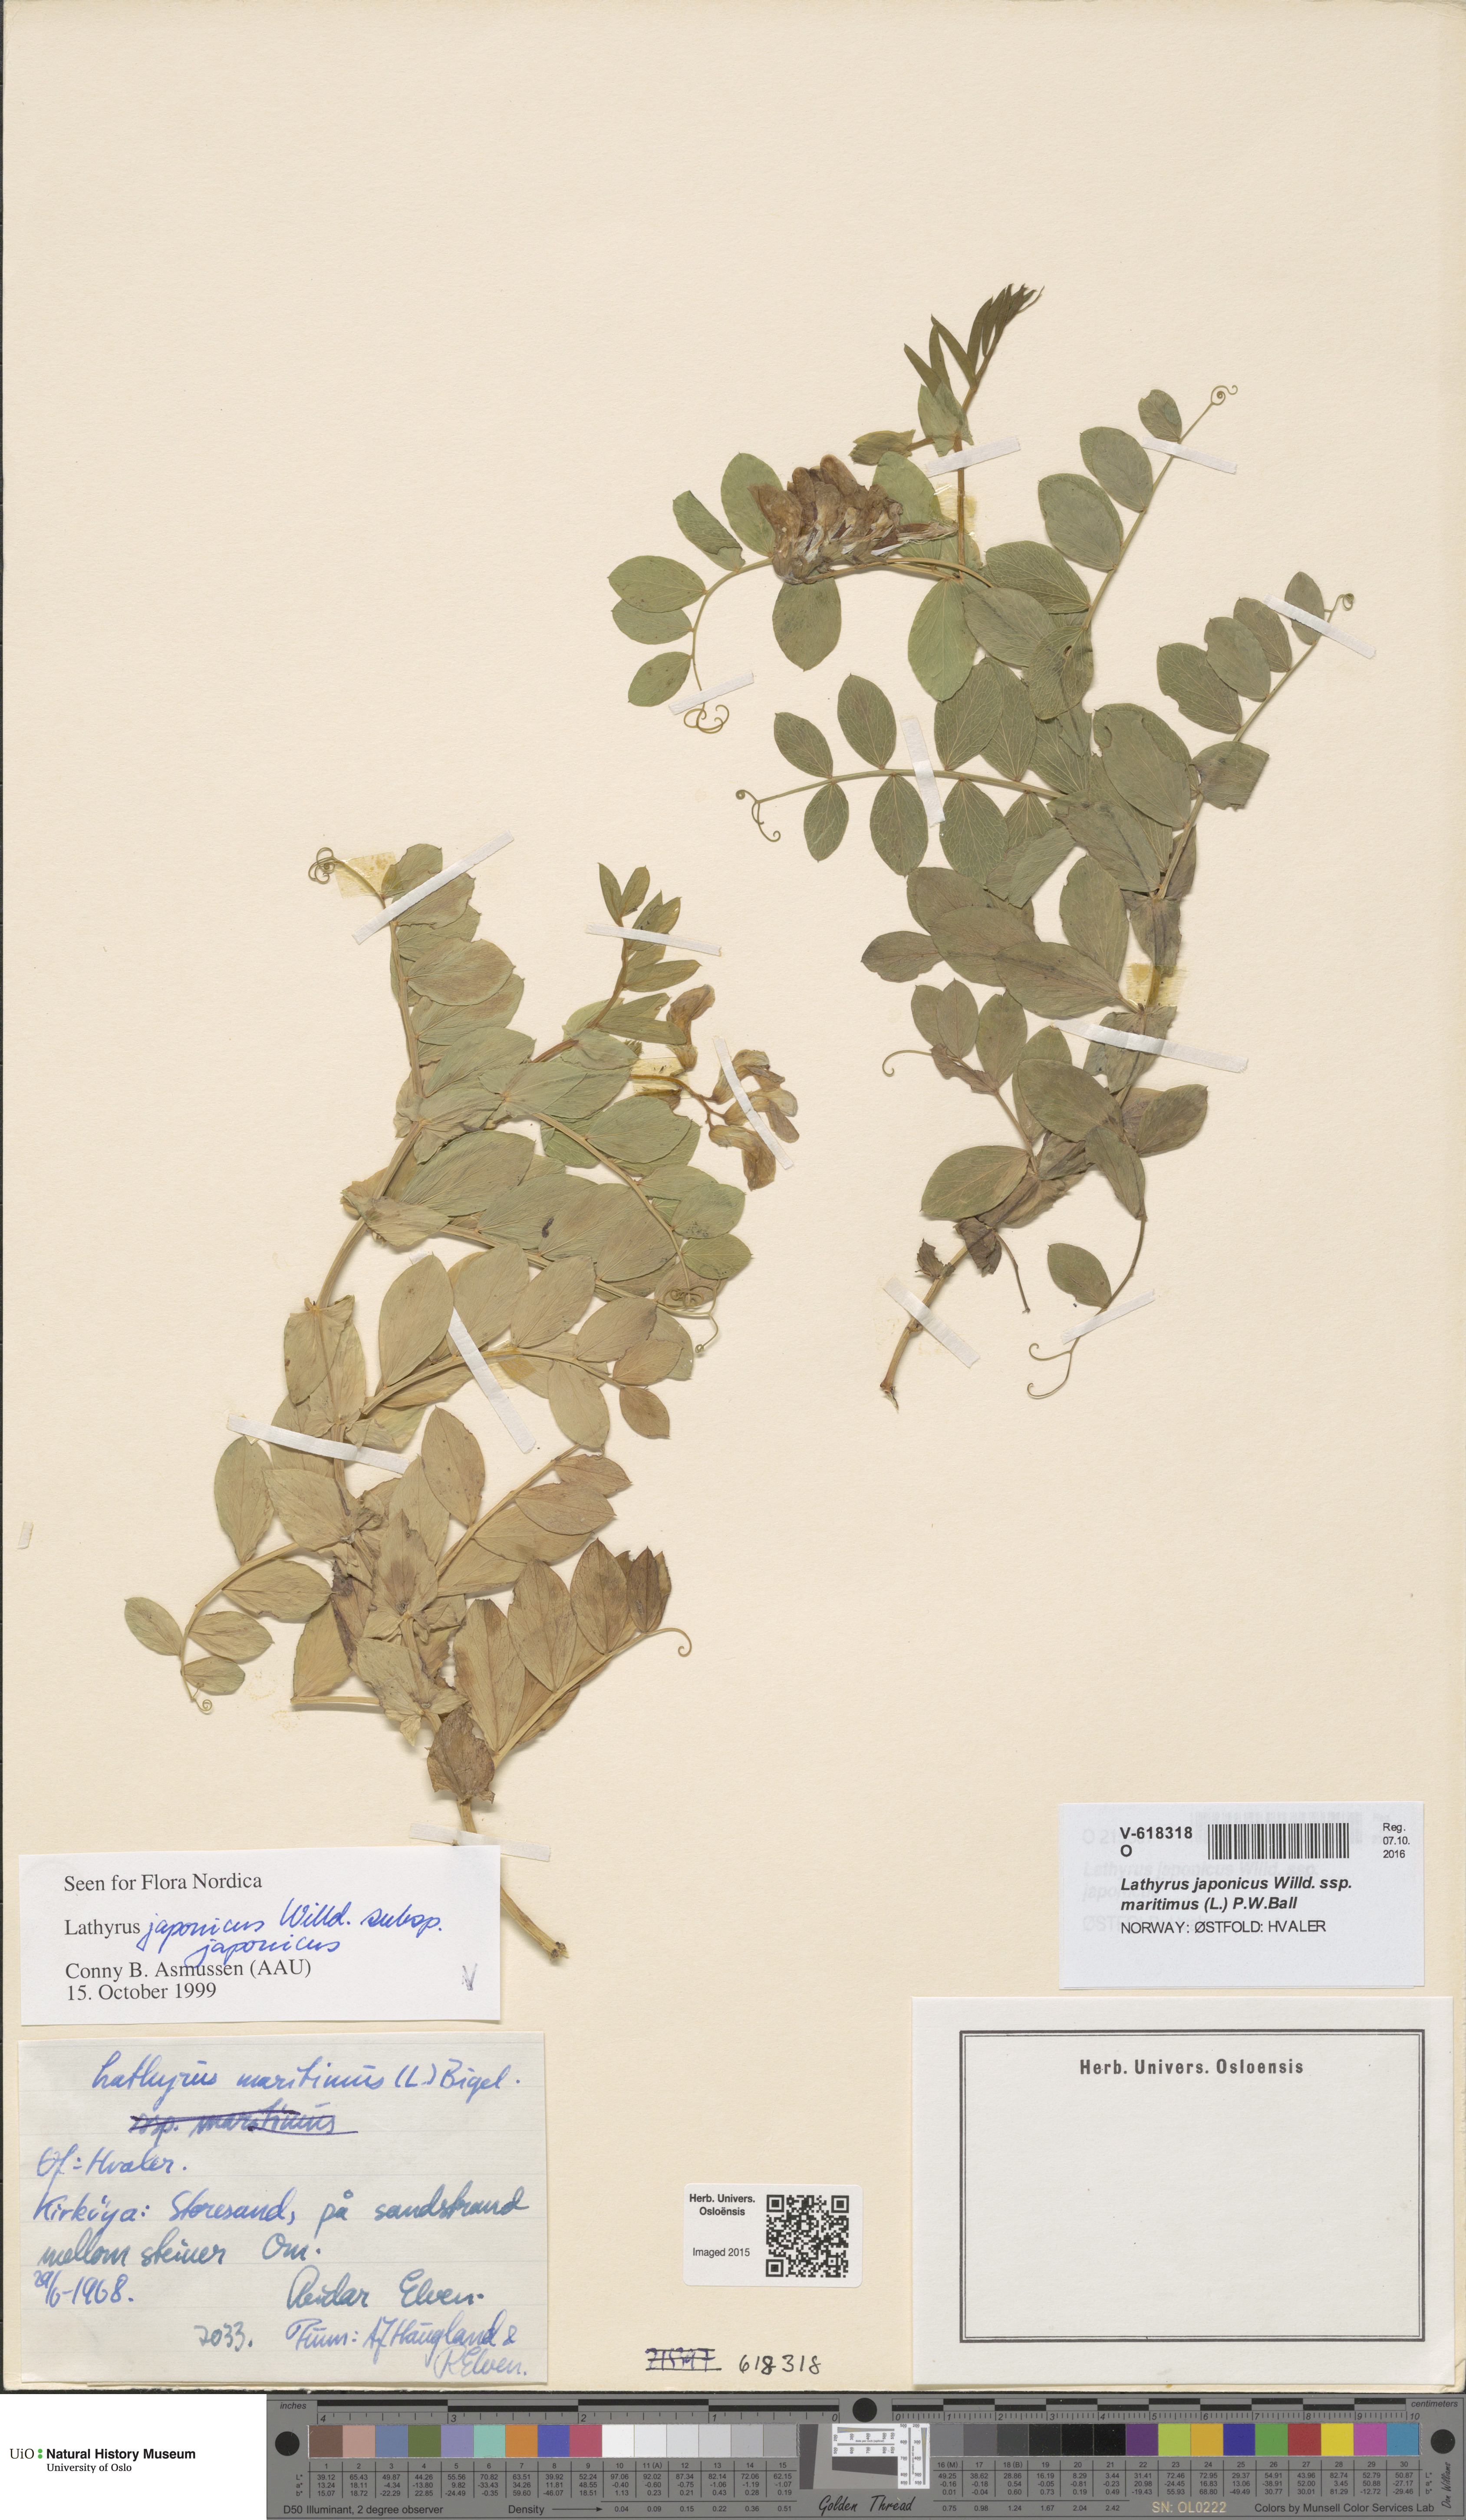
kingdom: Plantae
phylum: Tracheophyta
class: Magnoliopsida
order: Fabales
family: Fabaceae
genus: Lathyrus
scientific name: Lathyrus japonicus
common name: Sea pea
